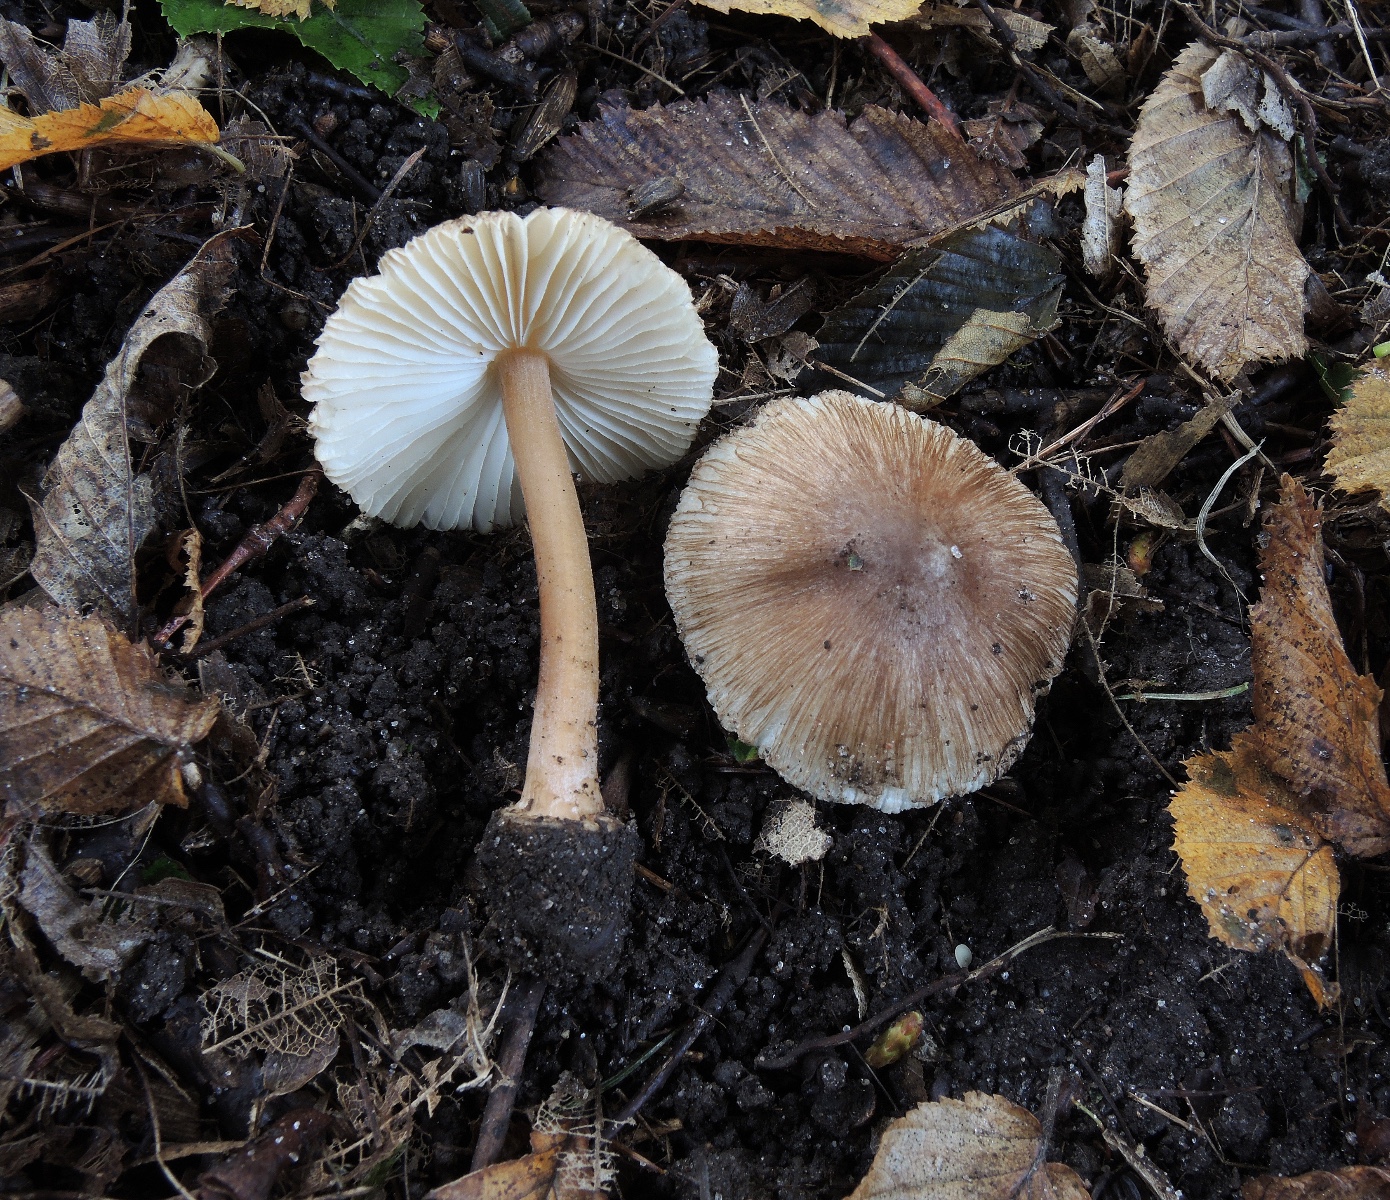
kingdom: Fungi
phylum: Basidiomycota
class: Agaricomycetes
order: Agaricales
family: Inocybaceae
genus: Inocybe
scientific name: Inocybe asterospora
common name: stjernesporet trævlhat
